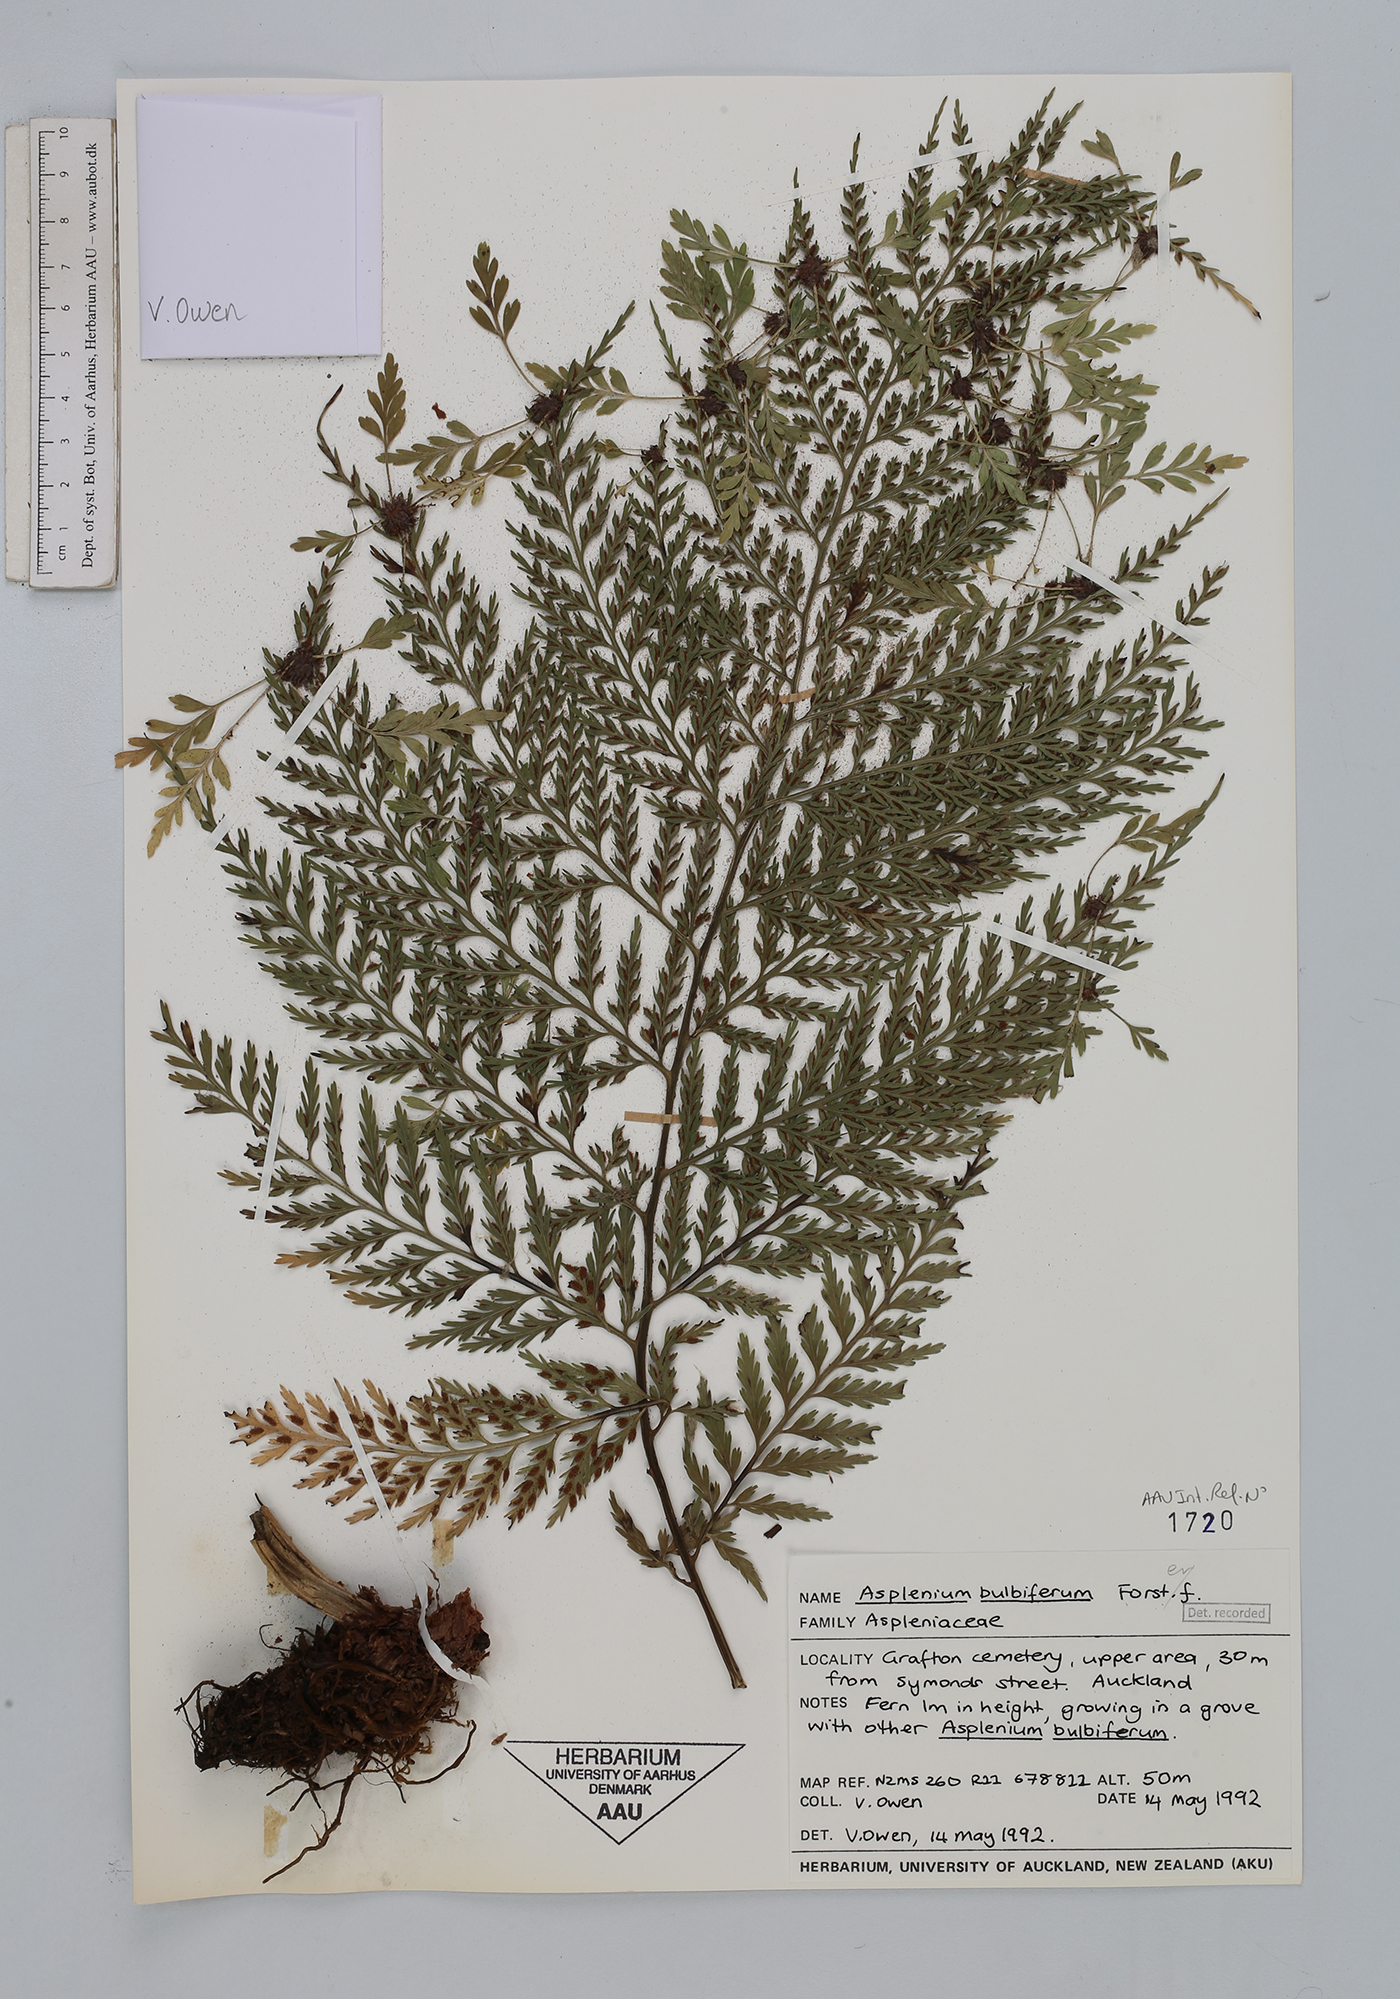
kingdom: Plantae
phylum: Tracheophyta
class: Polypodiopsida
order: Polypodiales
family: Aspleniaceae
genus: Asplenium
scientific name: Asplenium bulbiferum
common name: Mother fern
